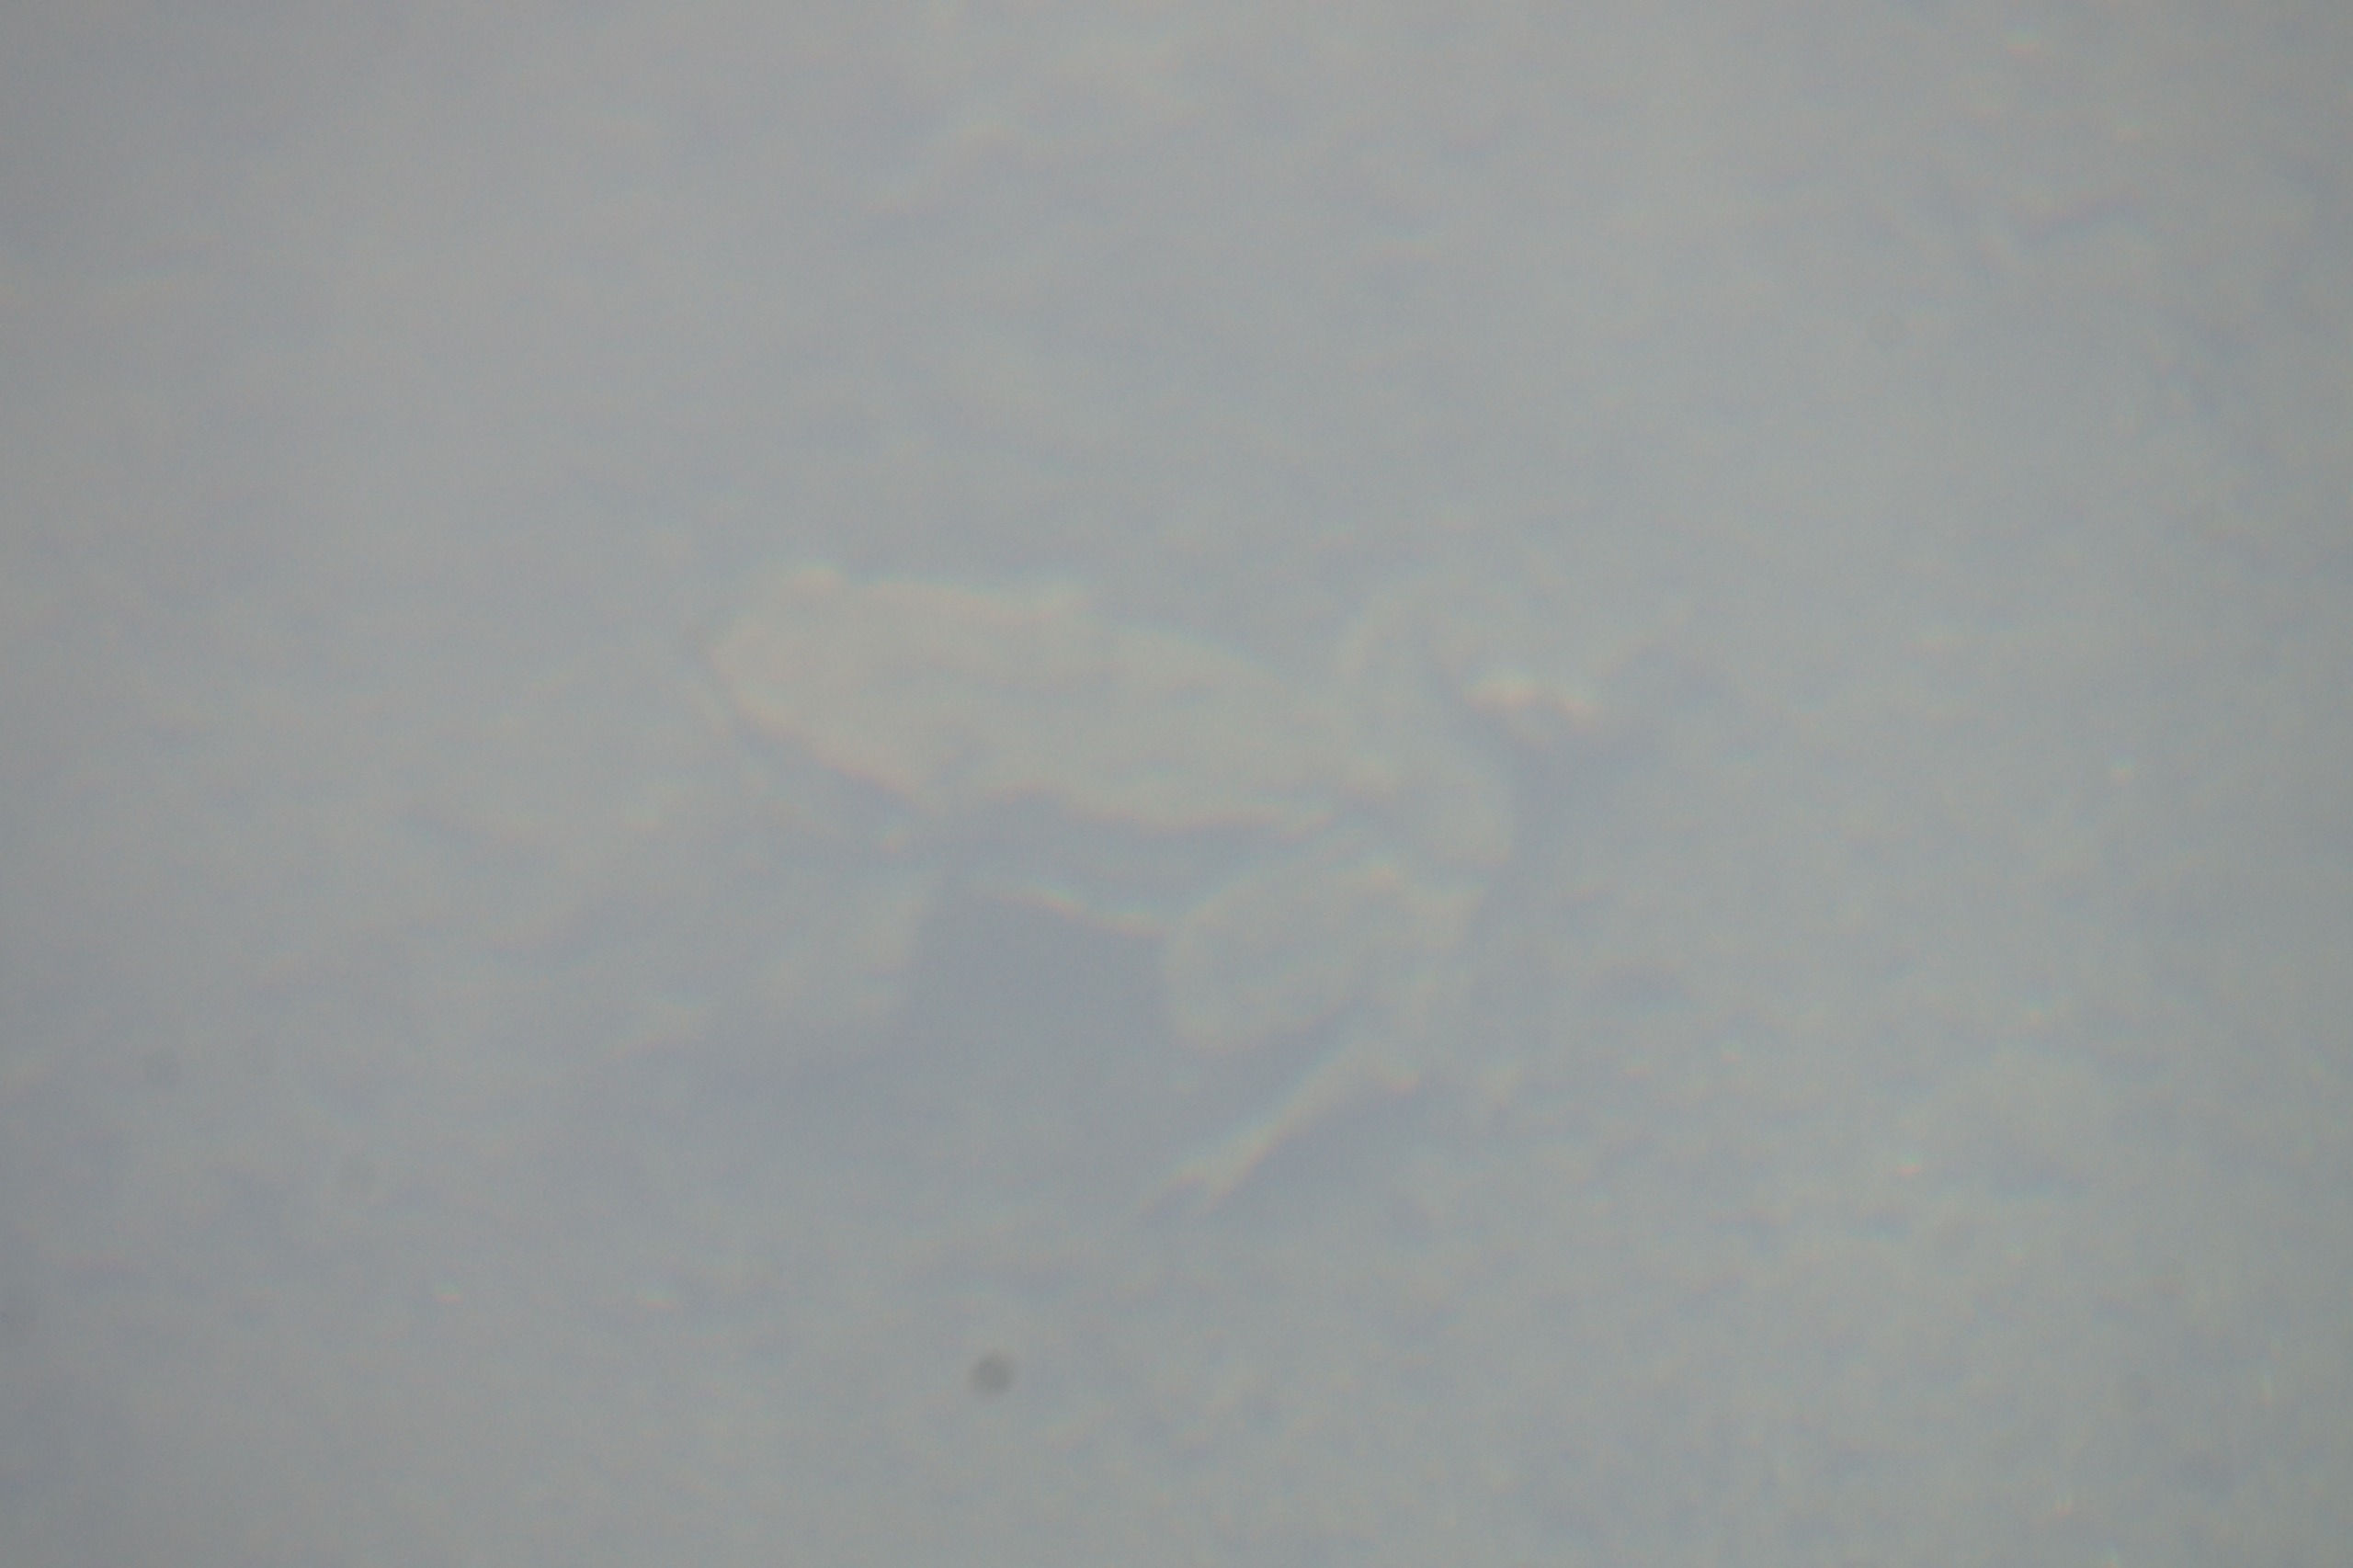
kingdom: Animalia
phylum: Chordata
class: Amphibia
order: Anura
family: Bufonidae
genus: Bufo
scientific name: Bufo bufo
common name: Skrubtudse
